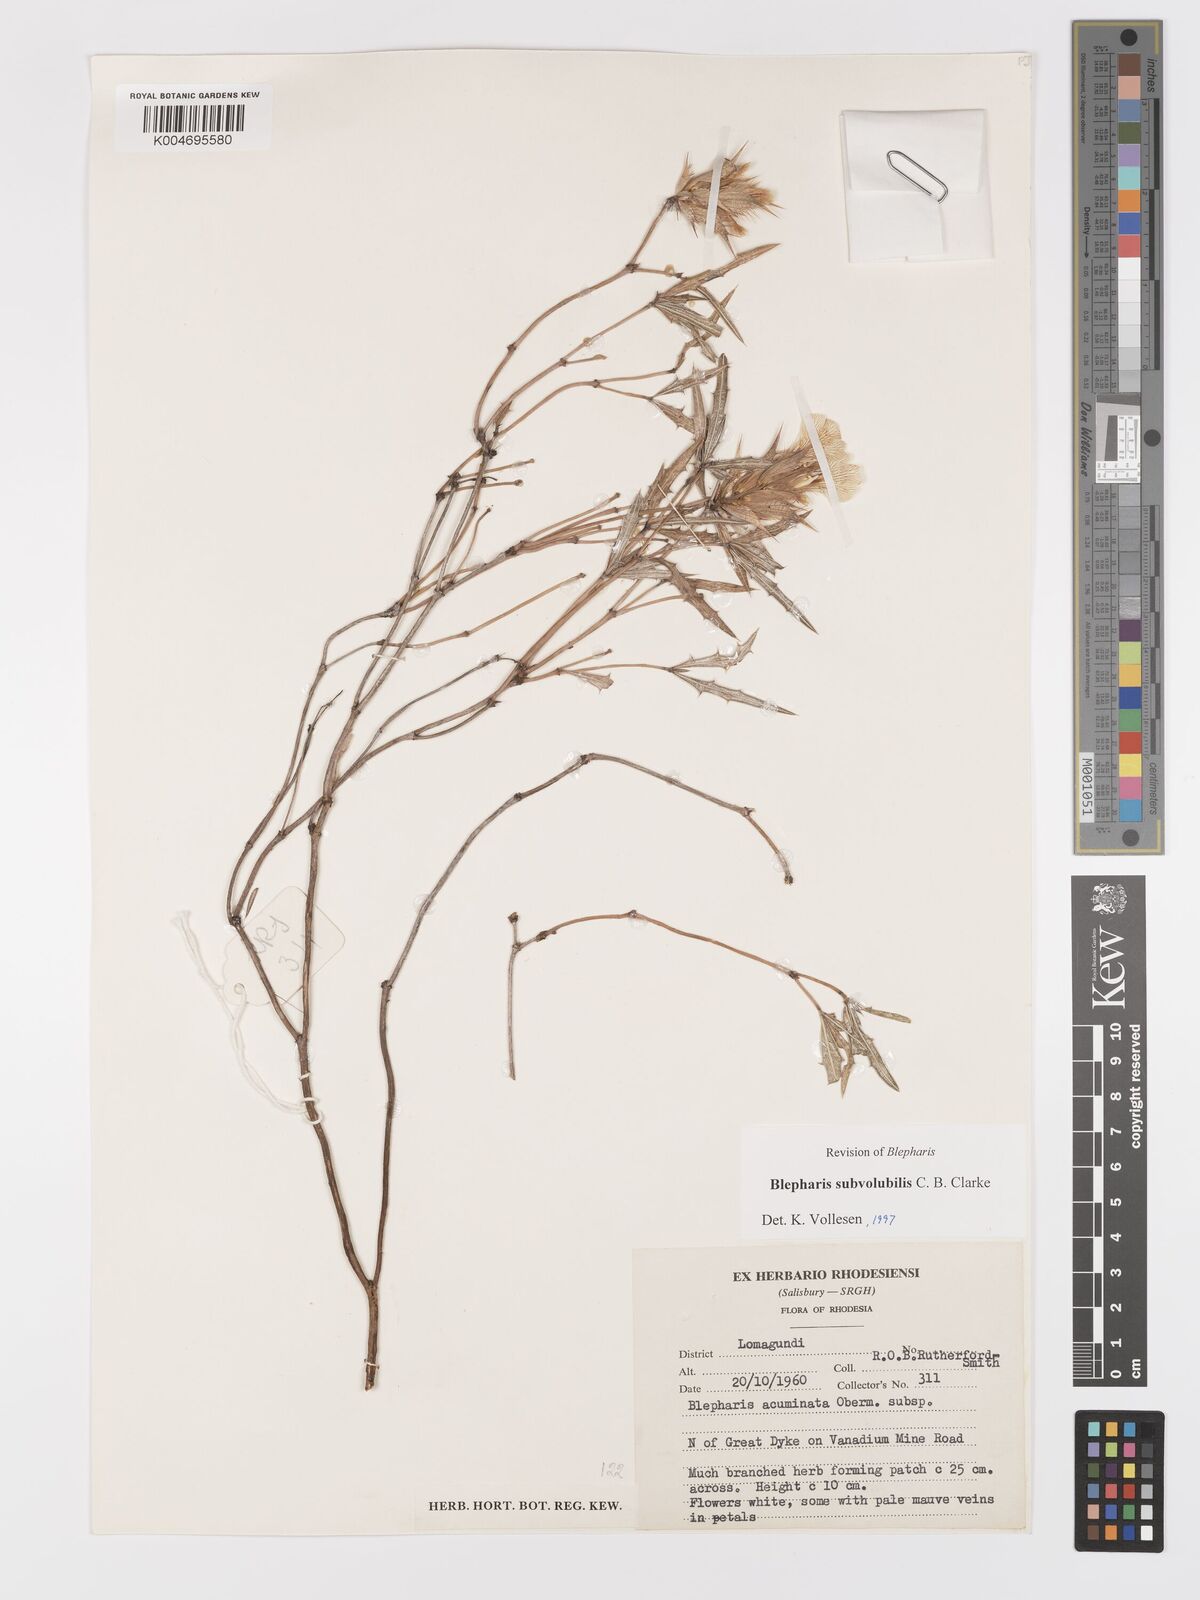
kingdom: Plantae
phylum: Tracheophyta
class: Magnoliopsida
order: Lamiales
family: Acanthaceae
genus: Blepharis
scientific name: Blepharis subvolubilis
